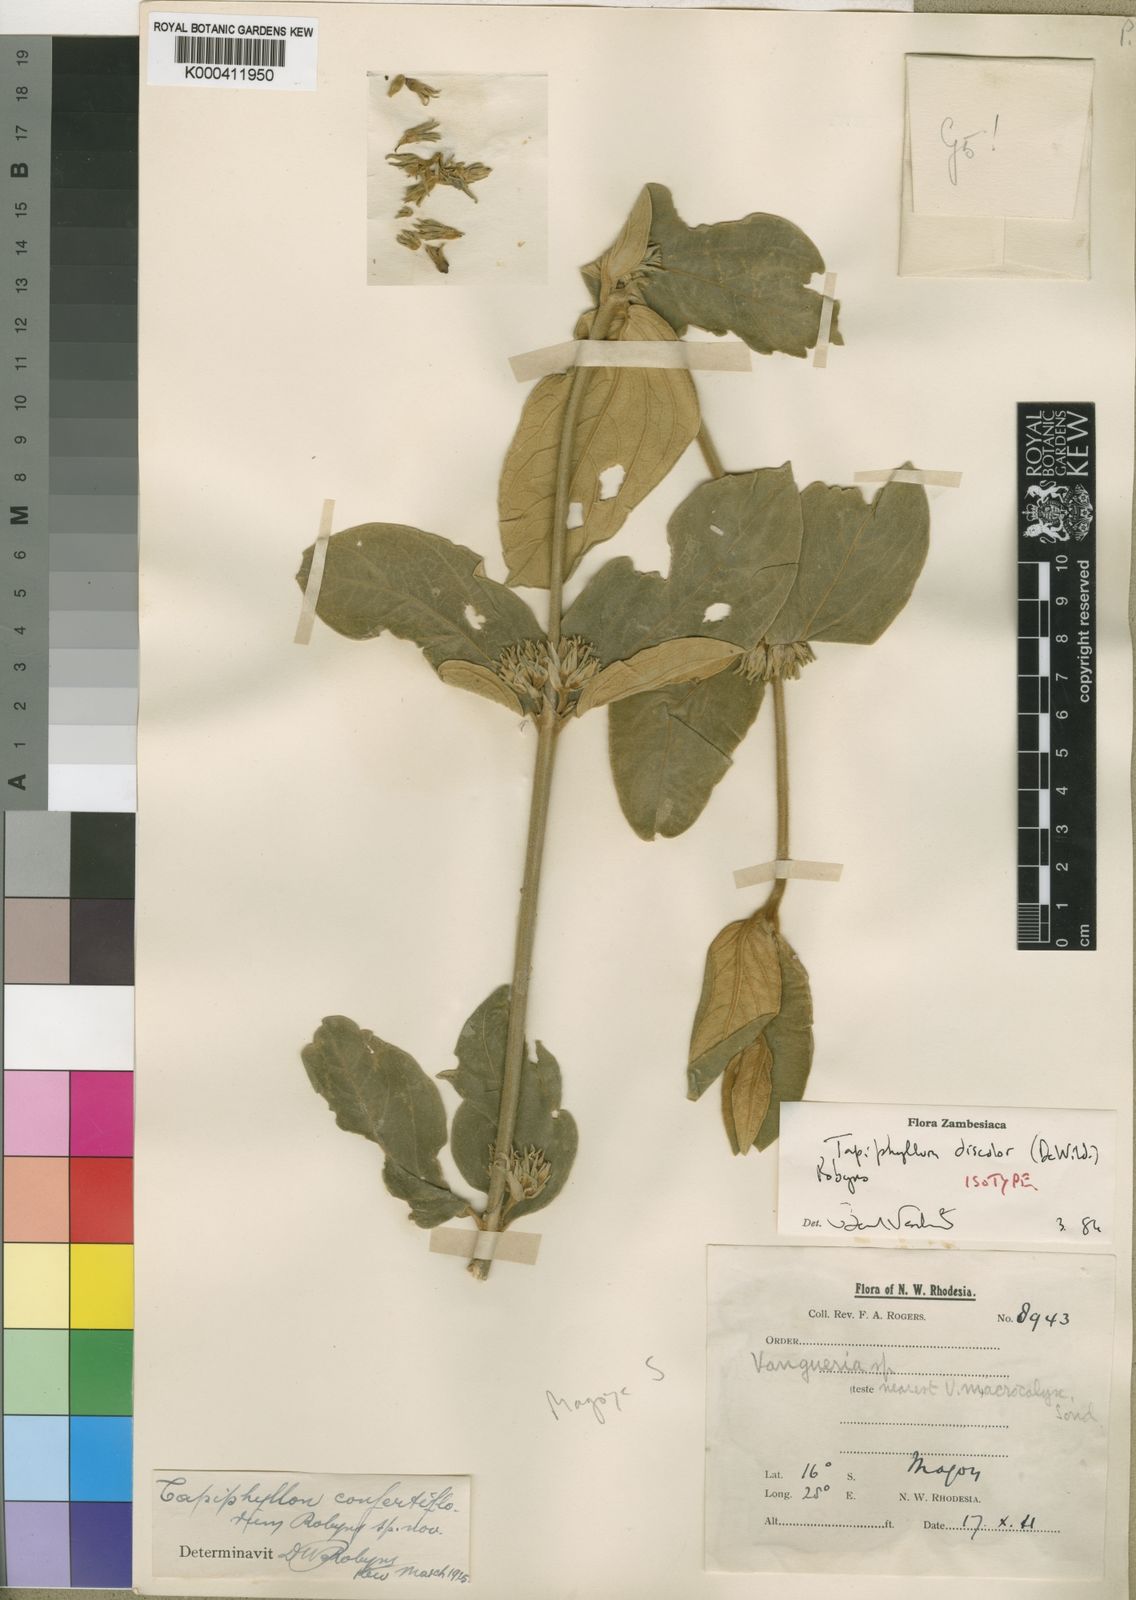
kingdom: Plantae
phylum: Tracheophyta
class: Magnoliopsida
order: Gentianales
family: Rubiaceae
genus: Vangueria
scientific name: Vangueria discolor
